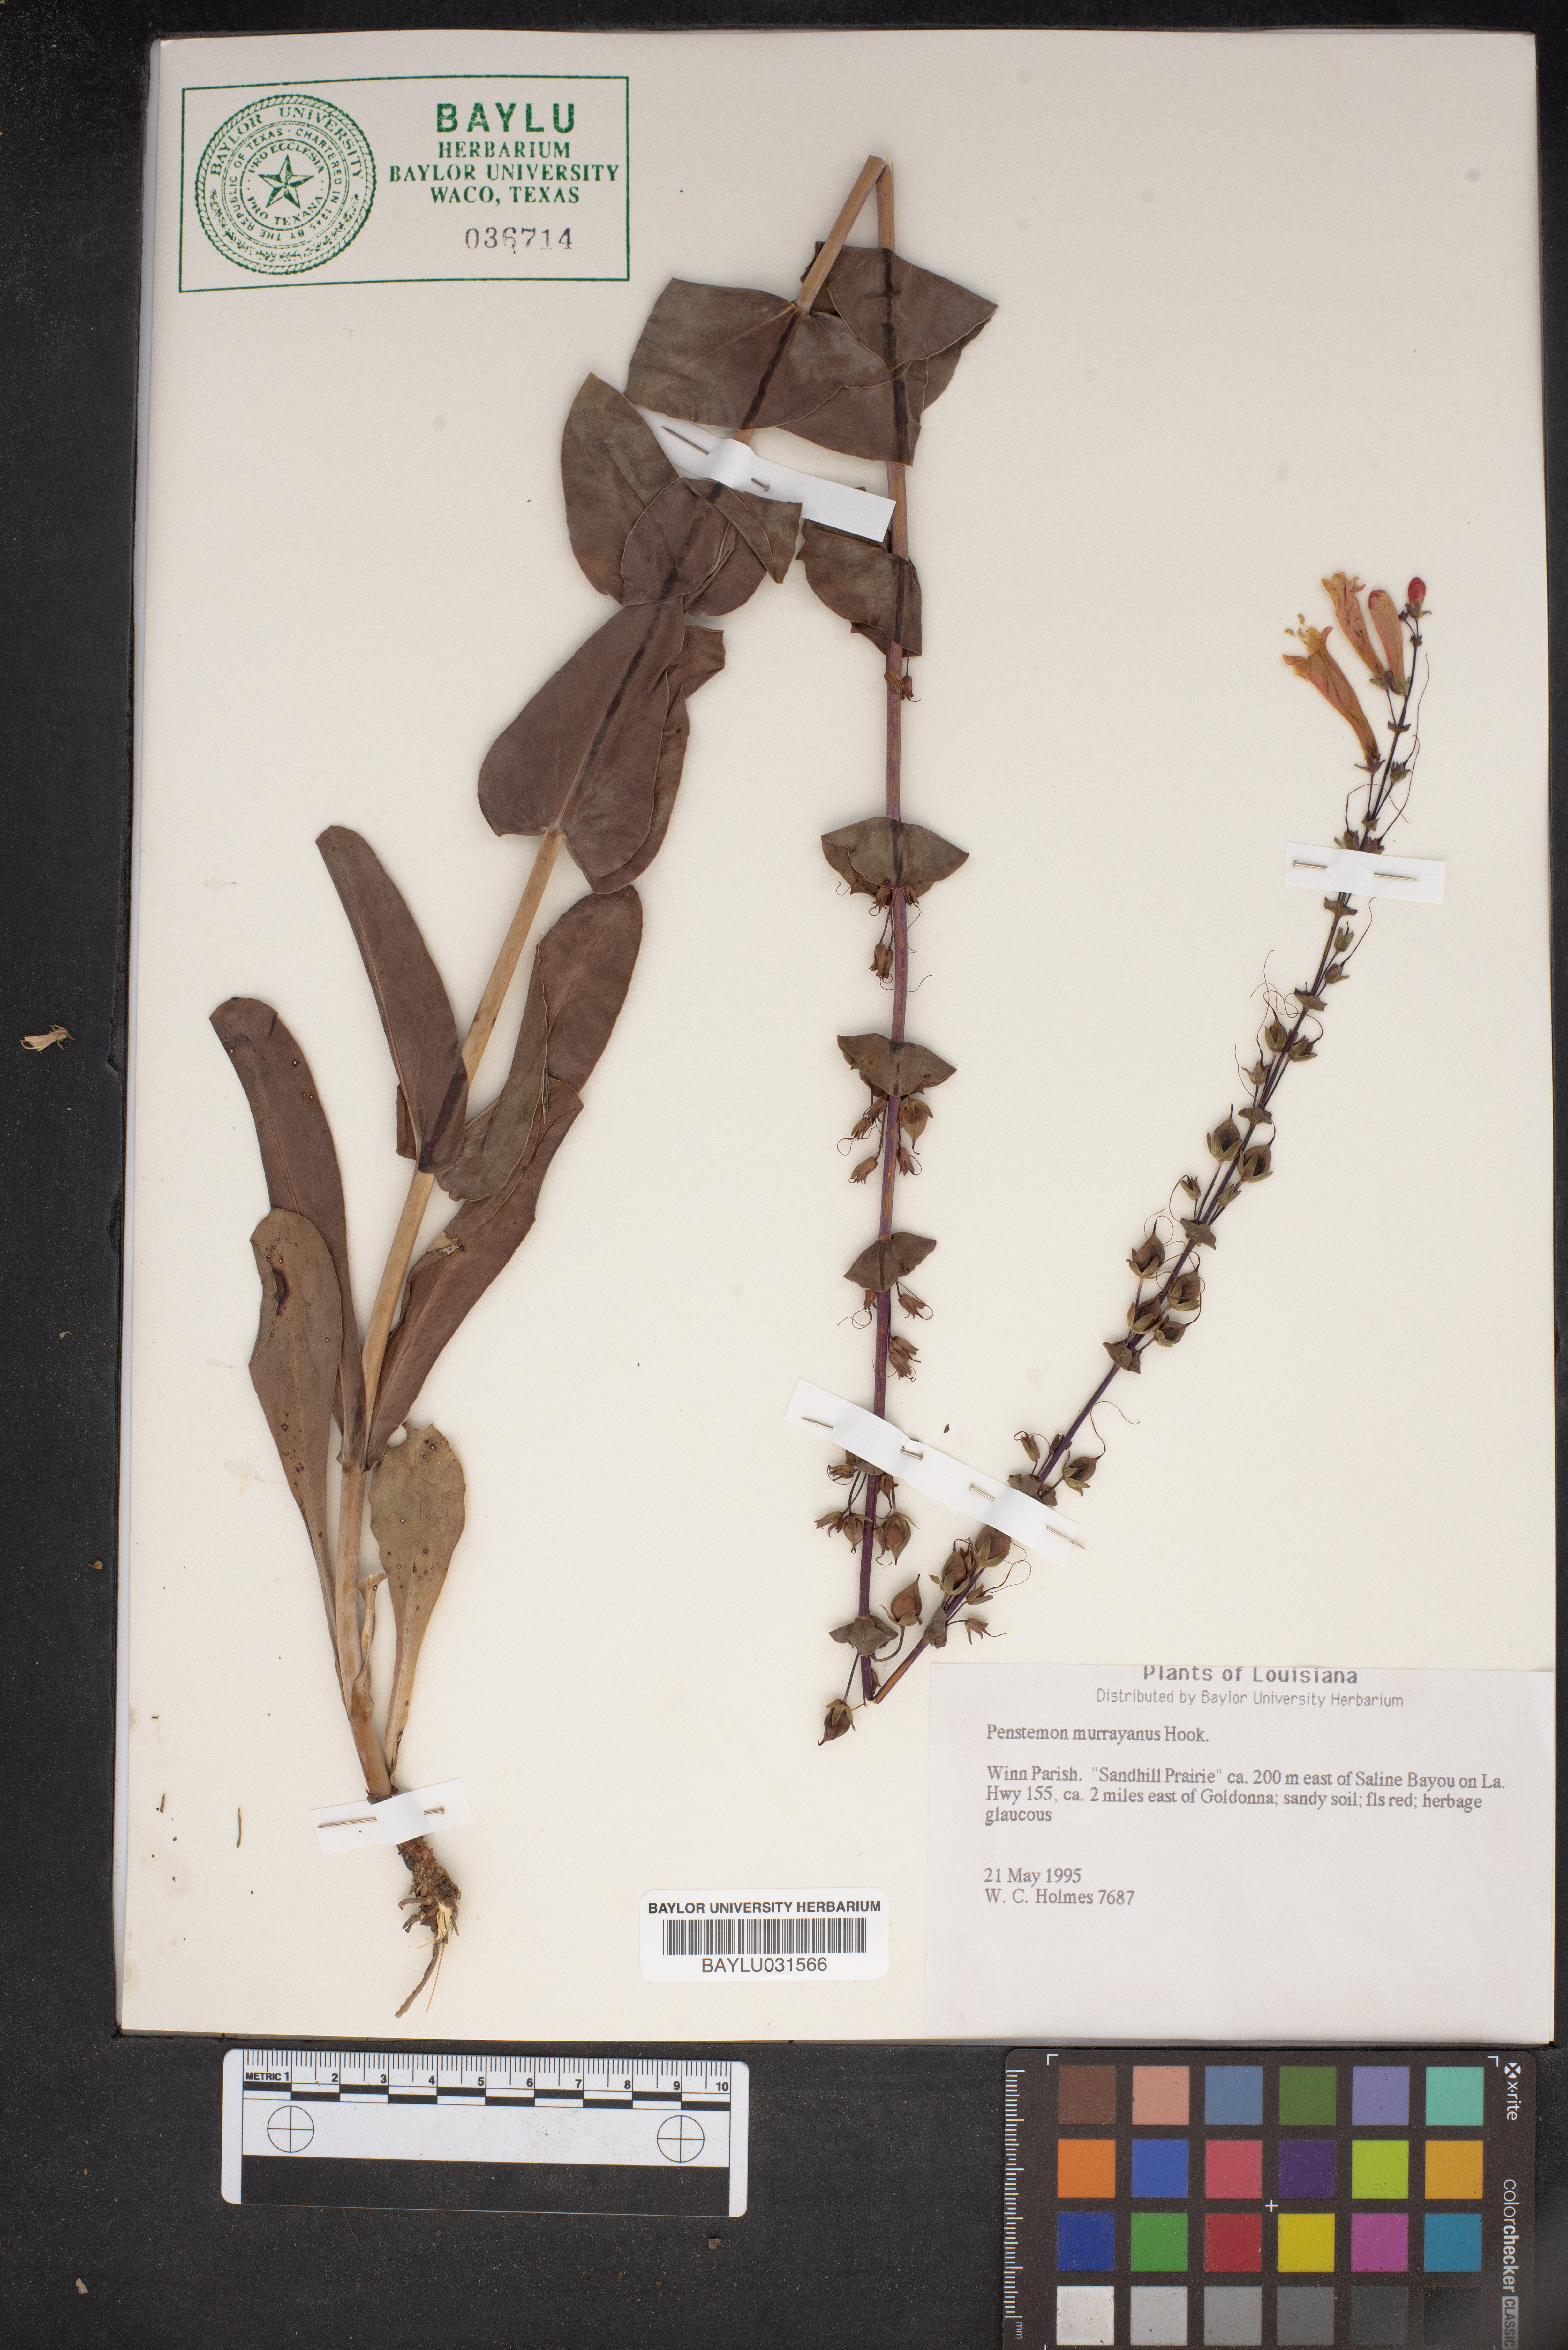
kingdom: Plantae
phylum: Tracheophyta
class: Magnoliopsida
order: Lamiales
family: Plantaginaceae
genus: Penstemon
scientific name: Penstemon murrayanus
